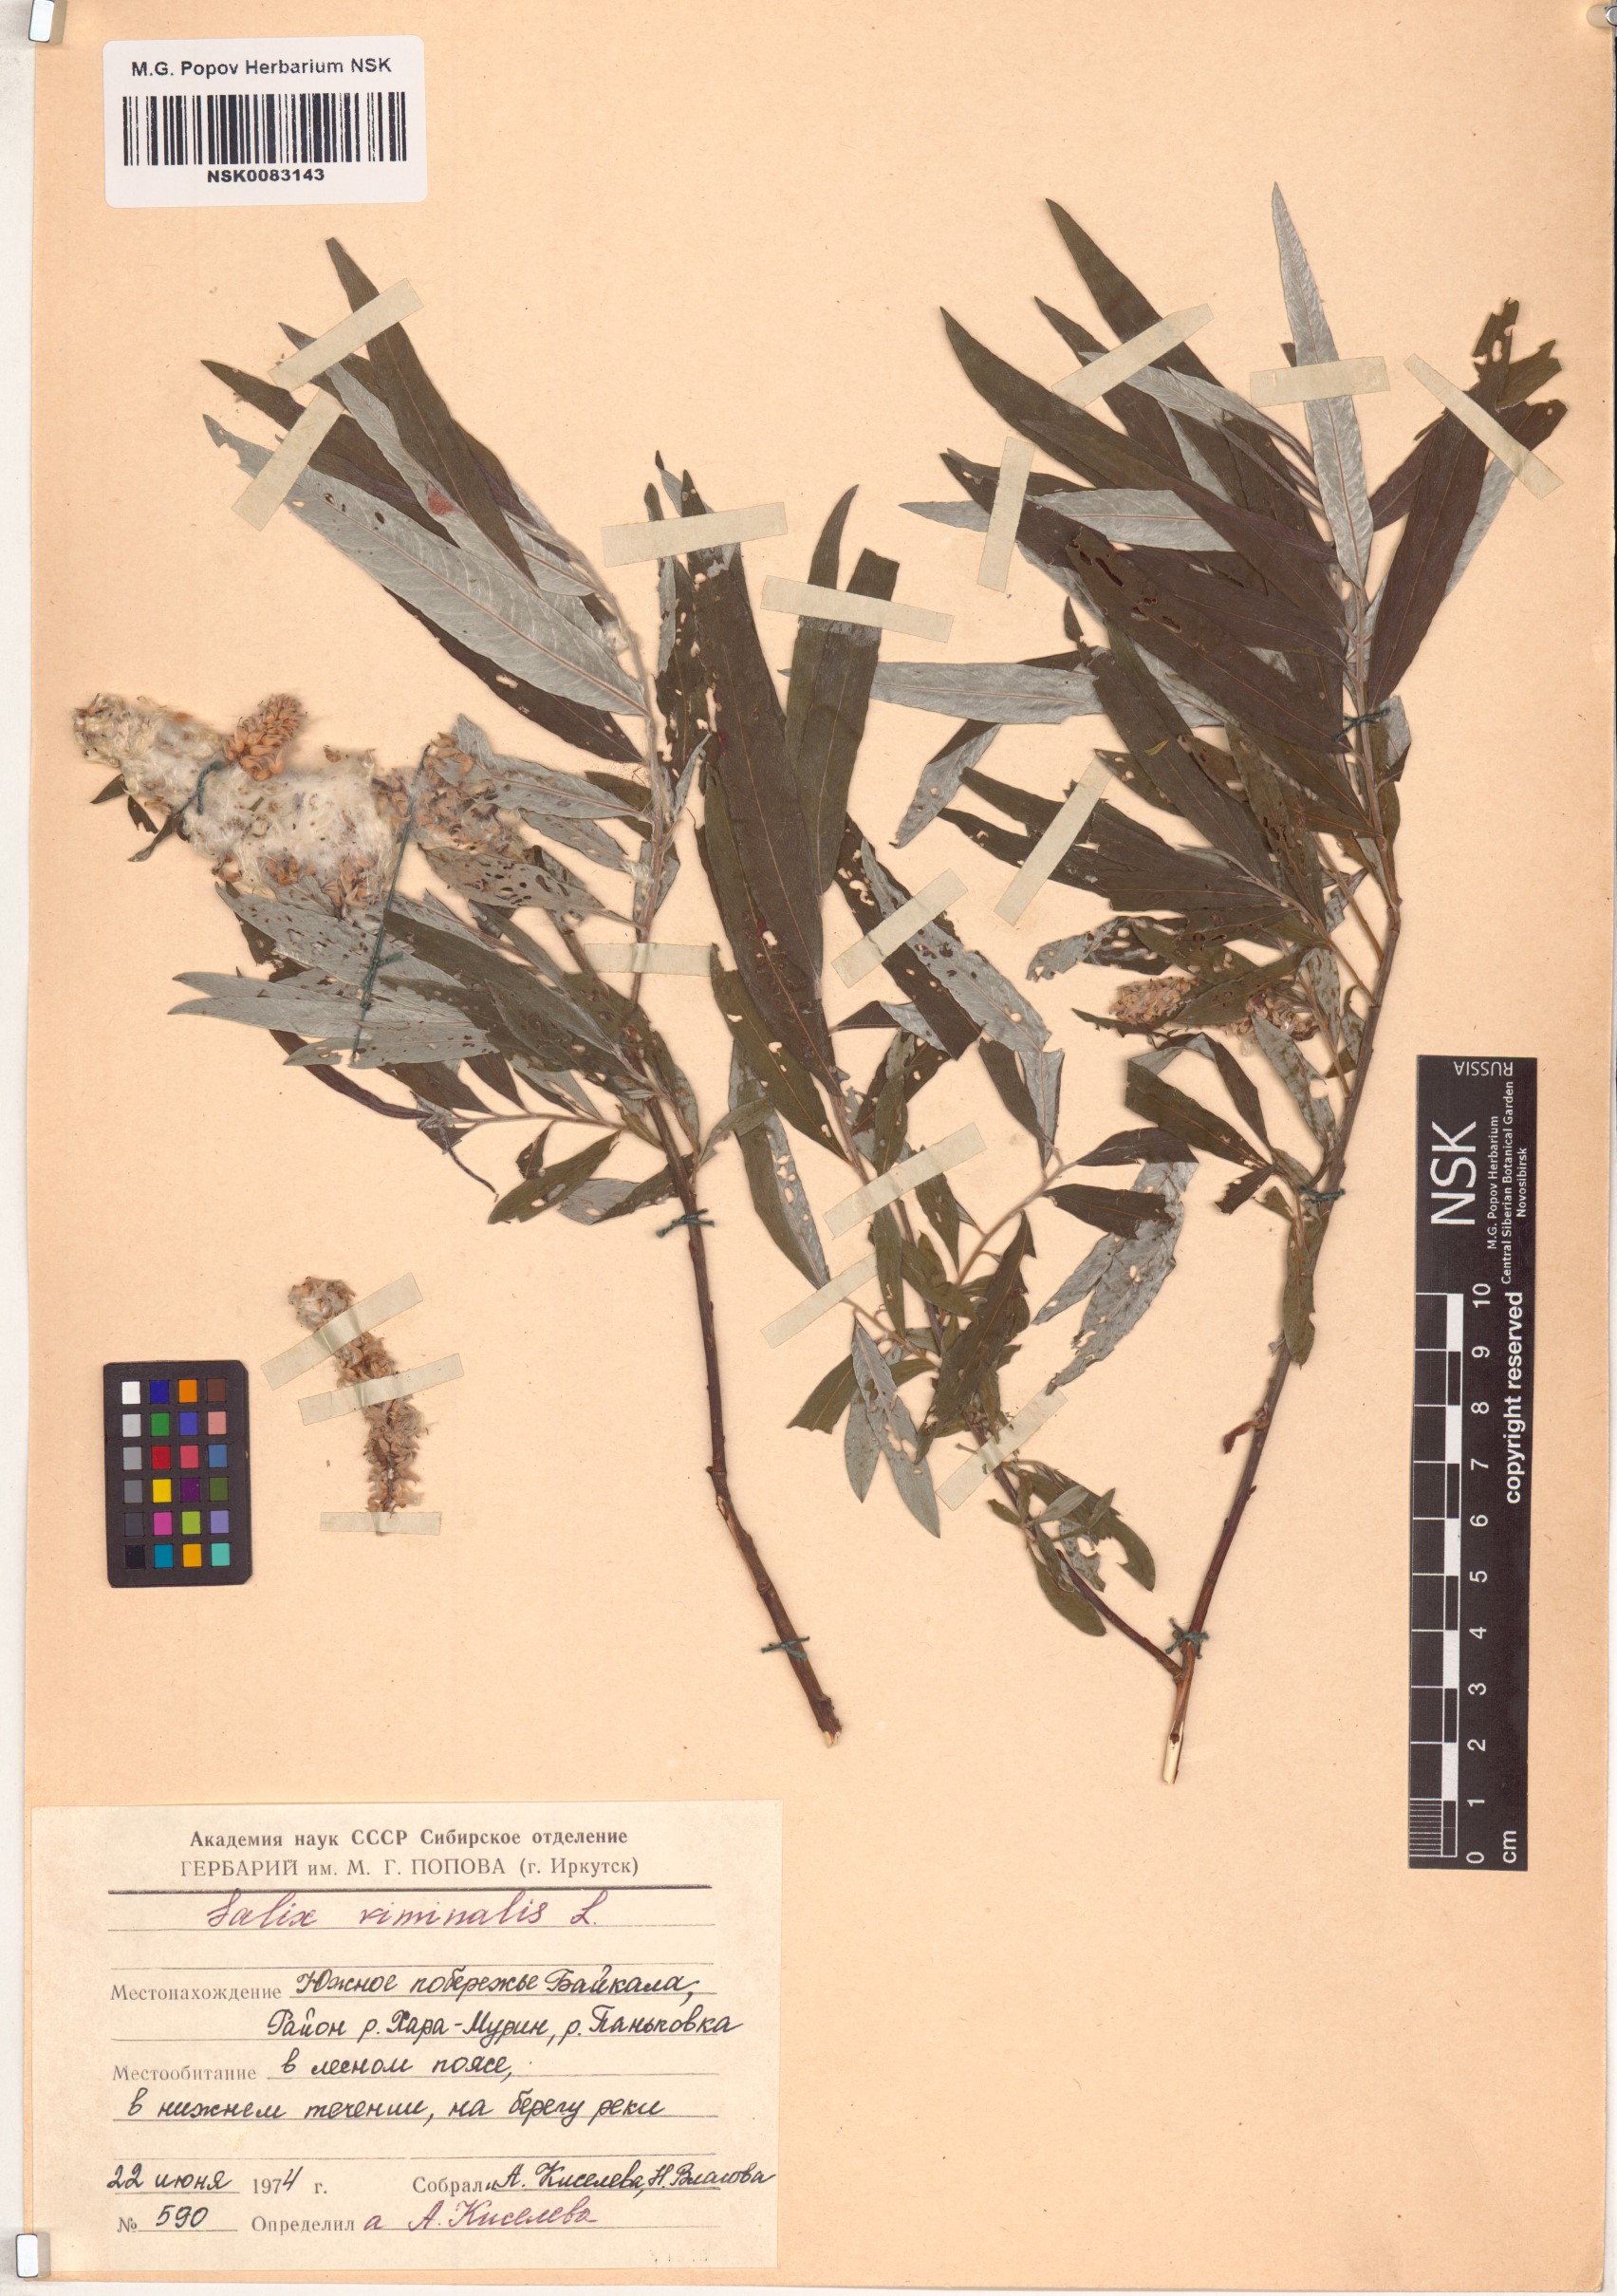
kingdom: Plantae
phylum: Tracheophyta
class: Magnoliopsida
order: Malpighiales
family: Salicaceae
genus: Salix
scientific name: Salix viminalis
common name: Osier
